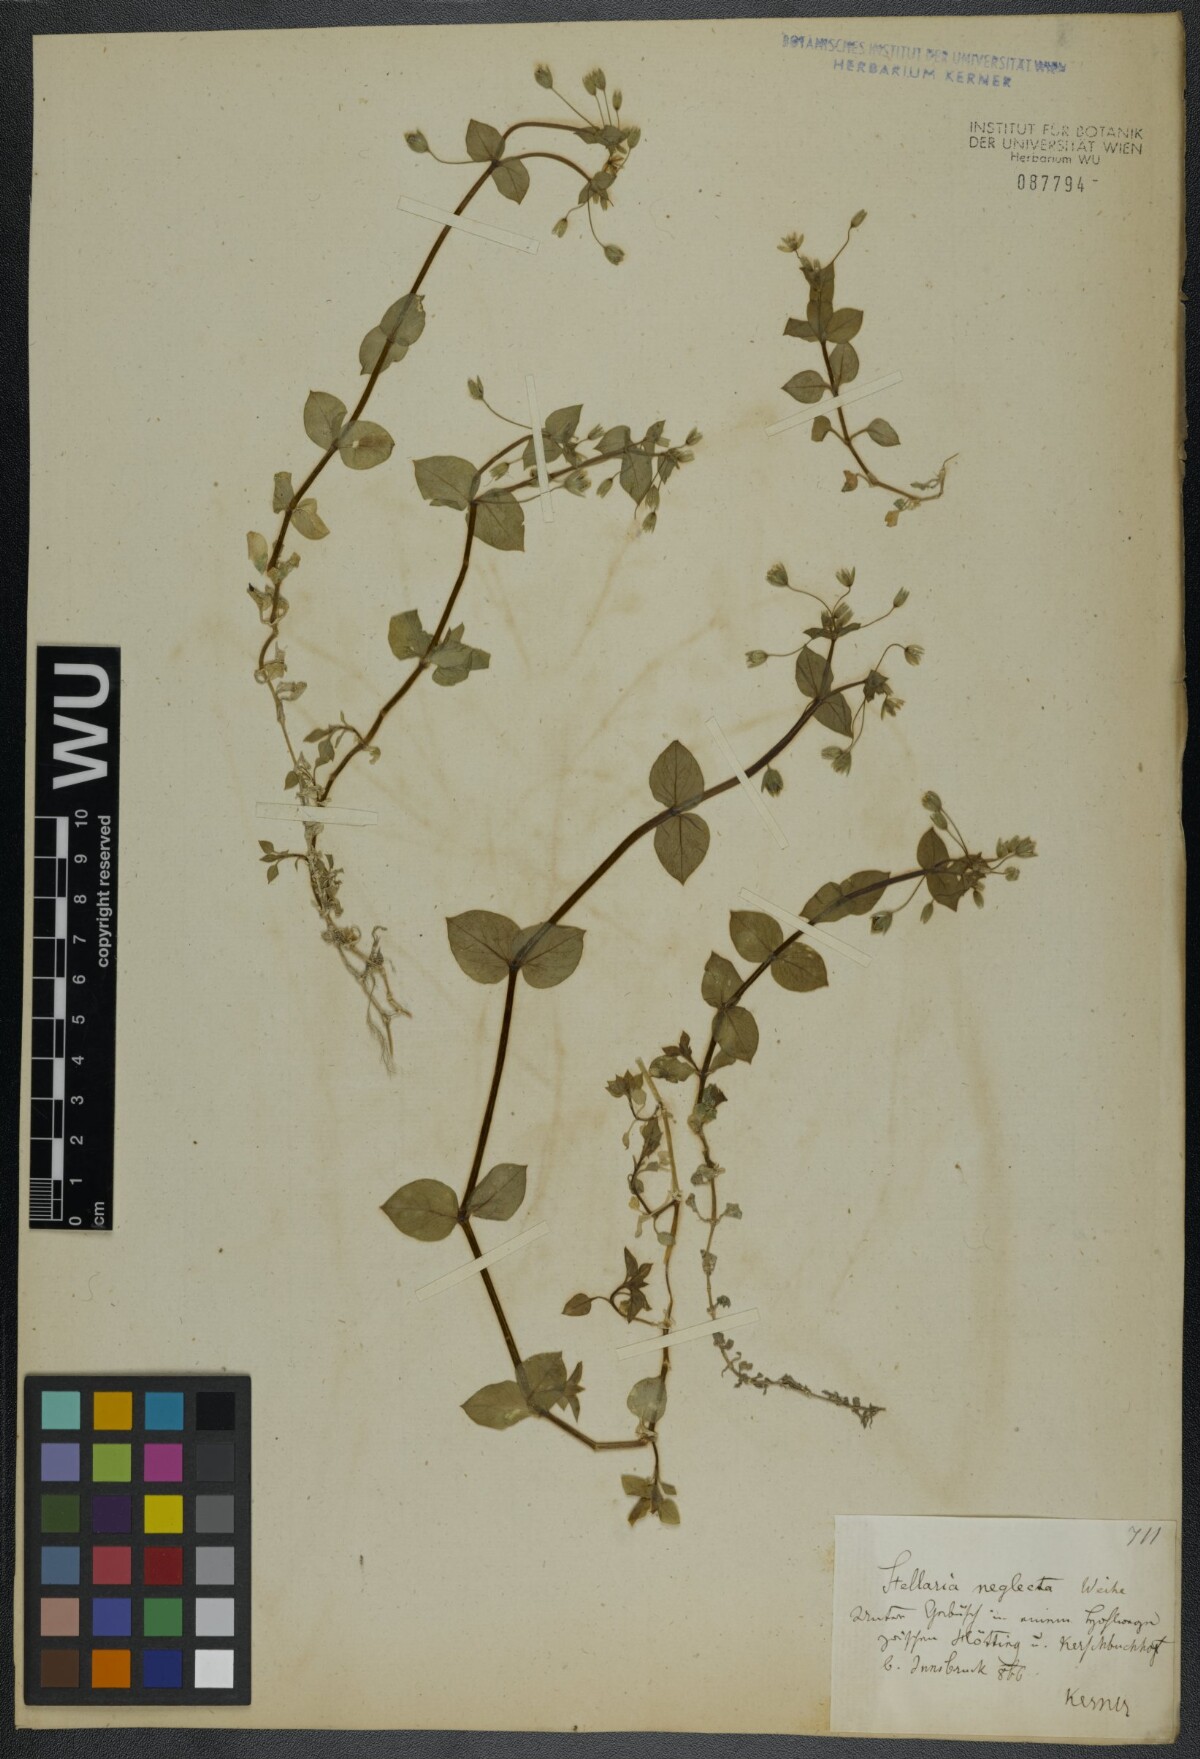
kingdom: Plantae
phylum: Tracheophyta
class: Magnoliopsida
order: Caryophyllales
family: Caryophyllaceae
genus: Stellaria
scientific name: Stellaria neglecta
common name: Greater chickweed
